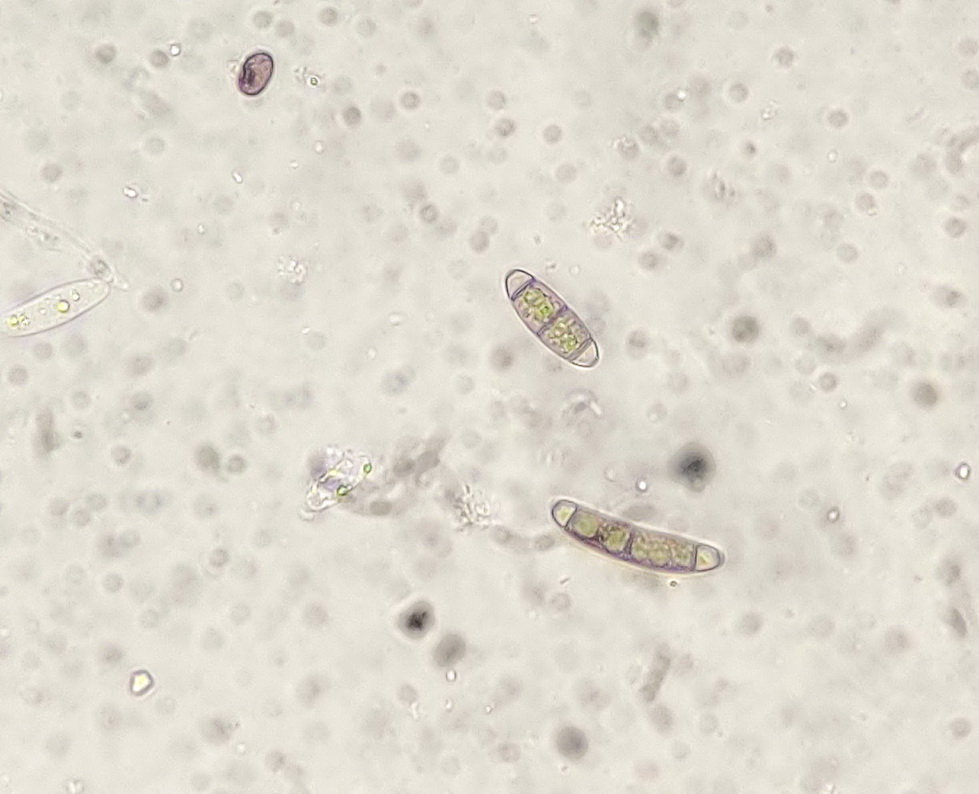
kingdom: Fungi
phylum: Ascomycota
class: Sordariomycetes
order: Coronophorales
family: Chaetosphaerellaceae
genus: Chaetosphaerella
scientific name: Chaetosphaerella phaeostroma
